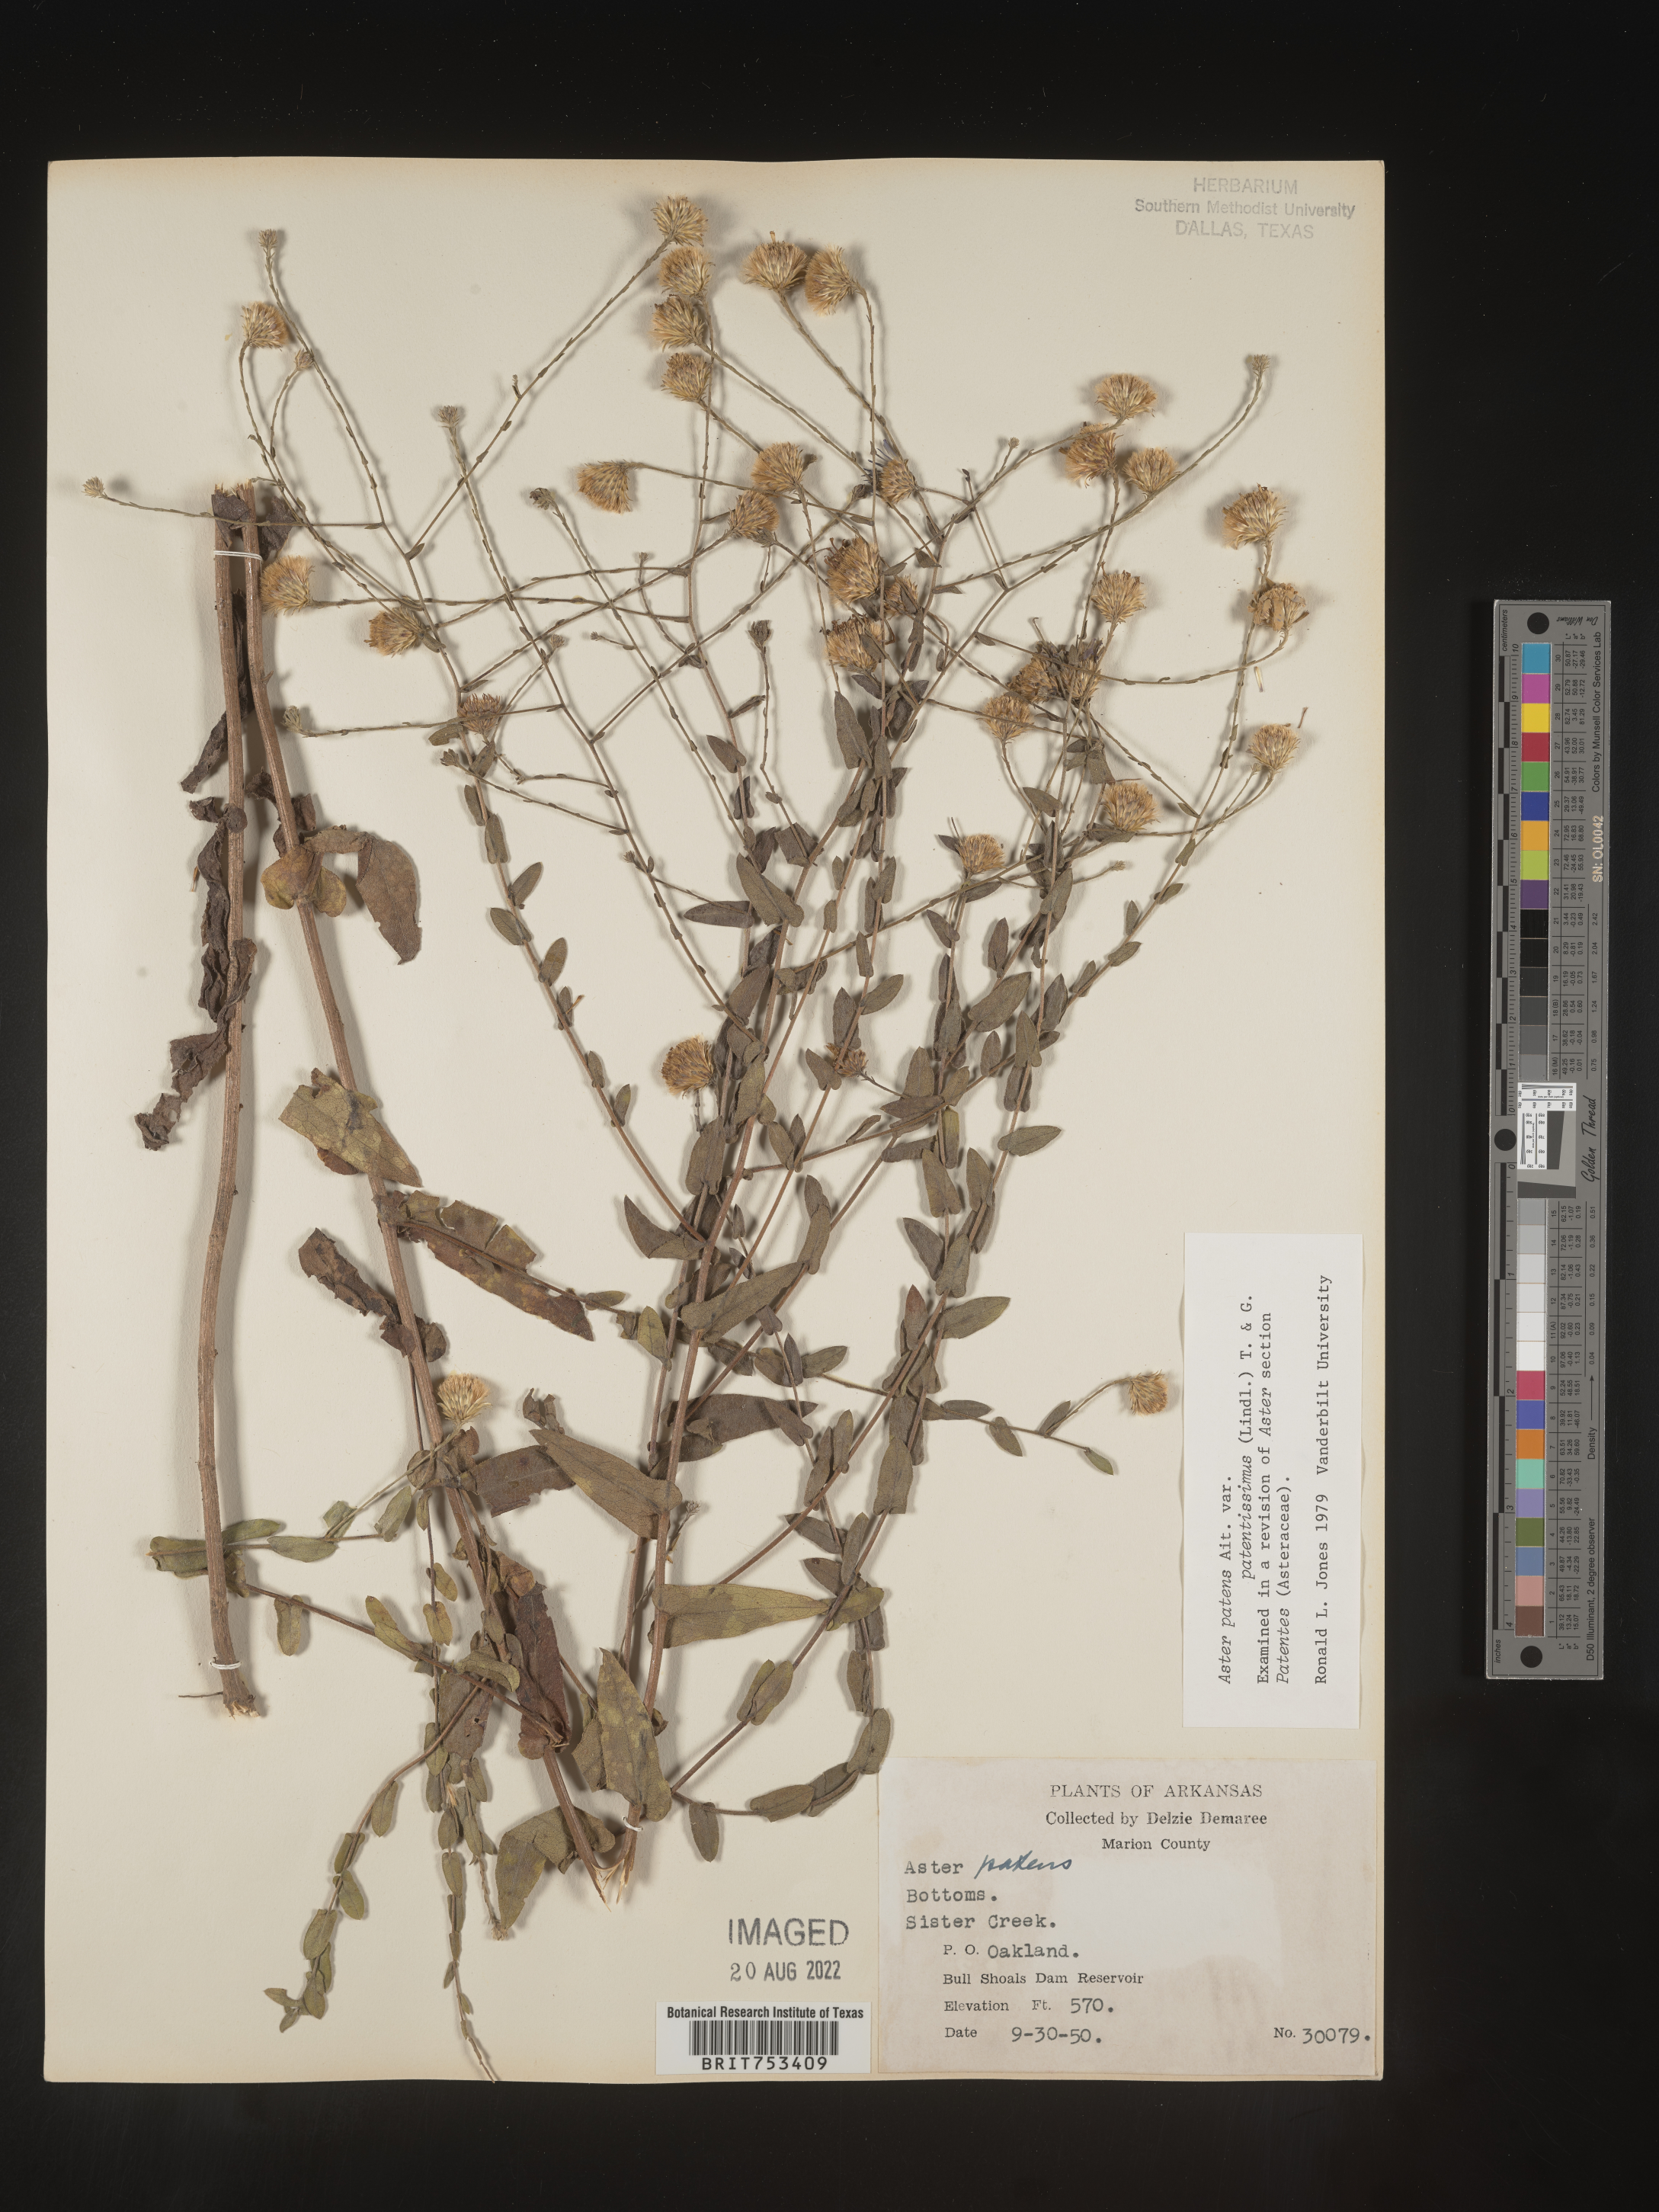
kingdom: Plantae
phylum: Tracheophyta
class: Magnoliopsida
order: Asterales
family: Asteraceae
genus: Symphyotrichum
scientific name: Symphyotrichum patens
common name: Late purple aster
